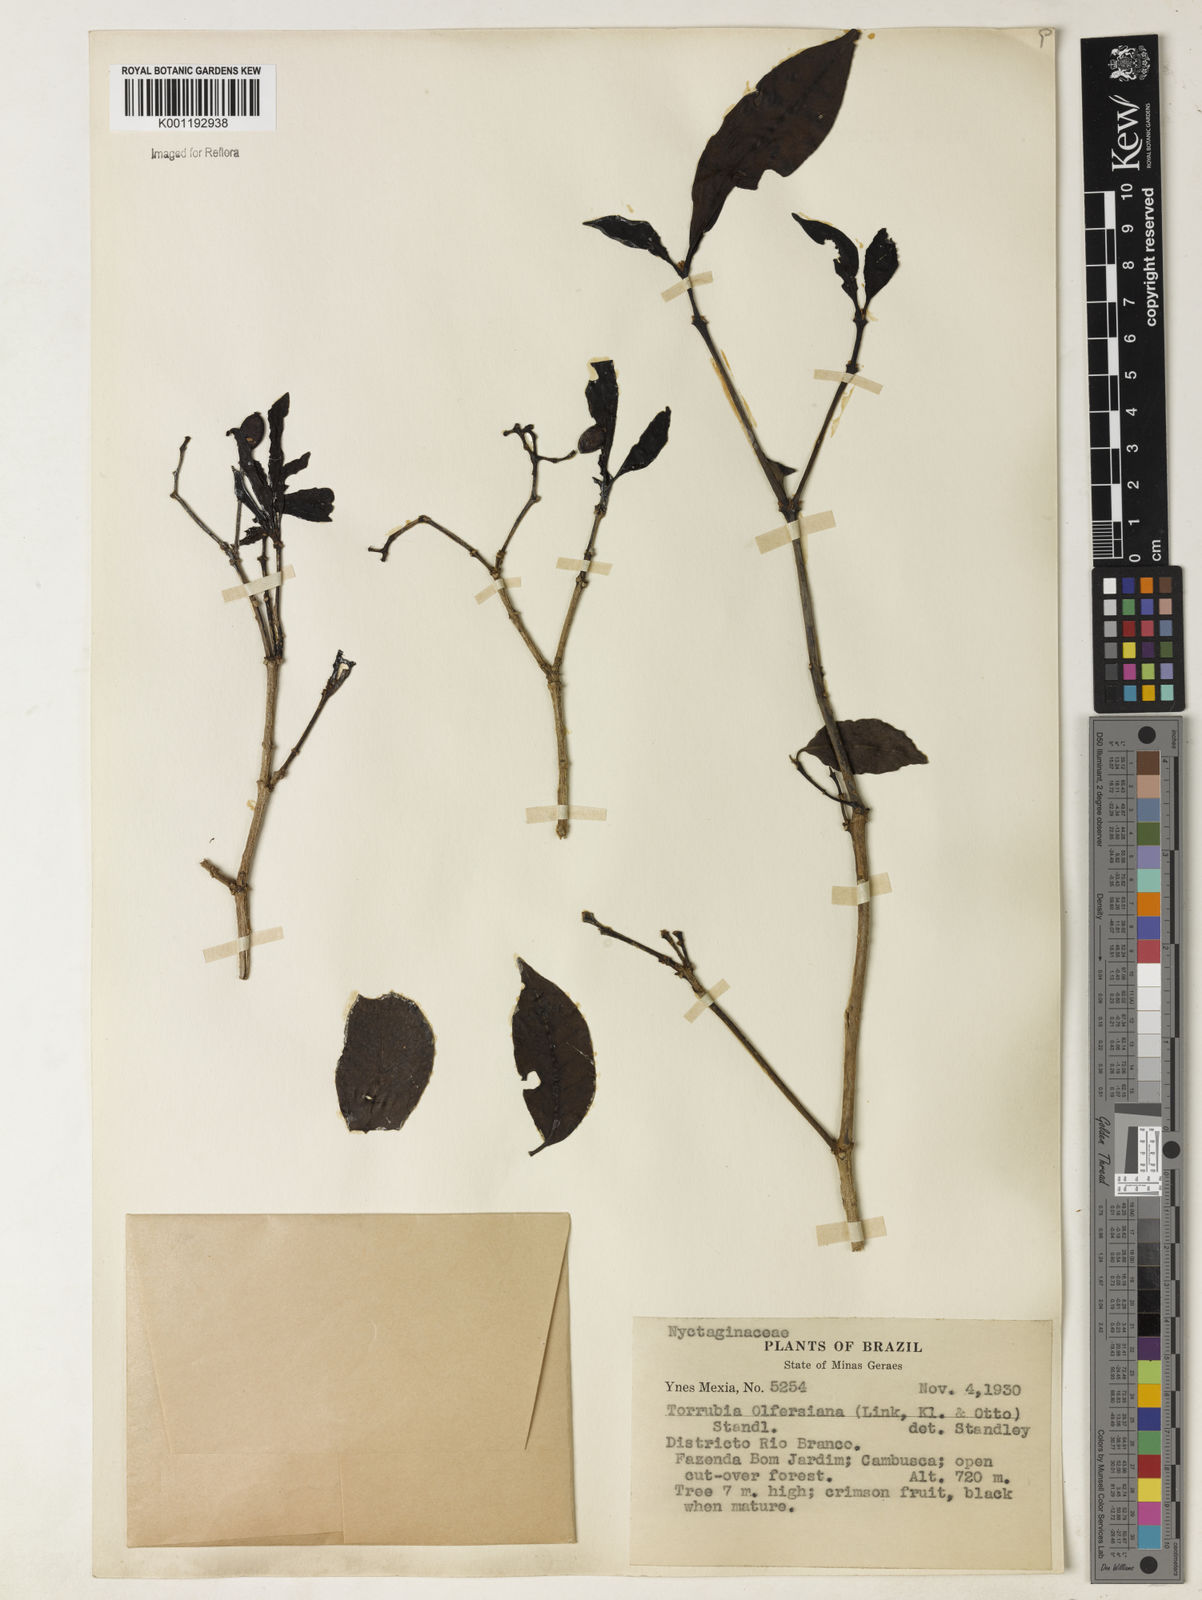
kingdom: Plantae
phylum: Tracheophyta
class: Magnoliopsida
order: Caryophyllales
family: Nyctaginaceae
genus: Guapira
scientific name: Guapira
